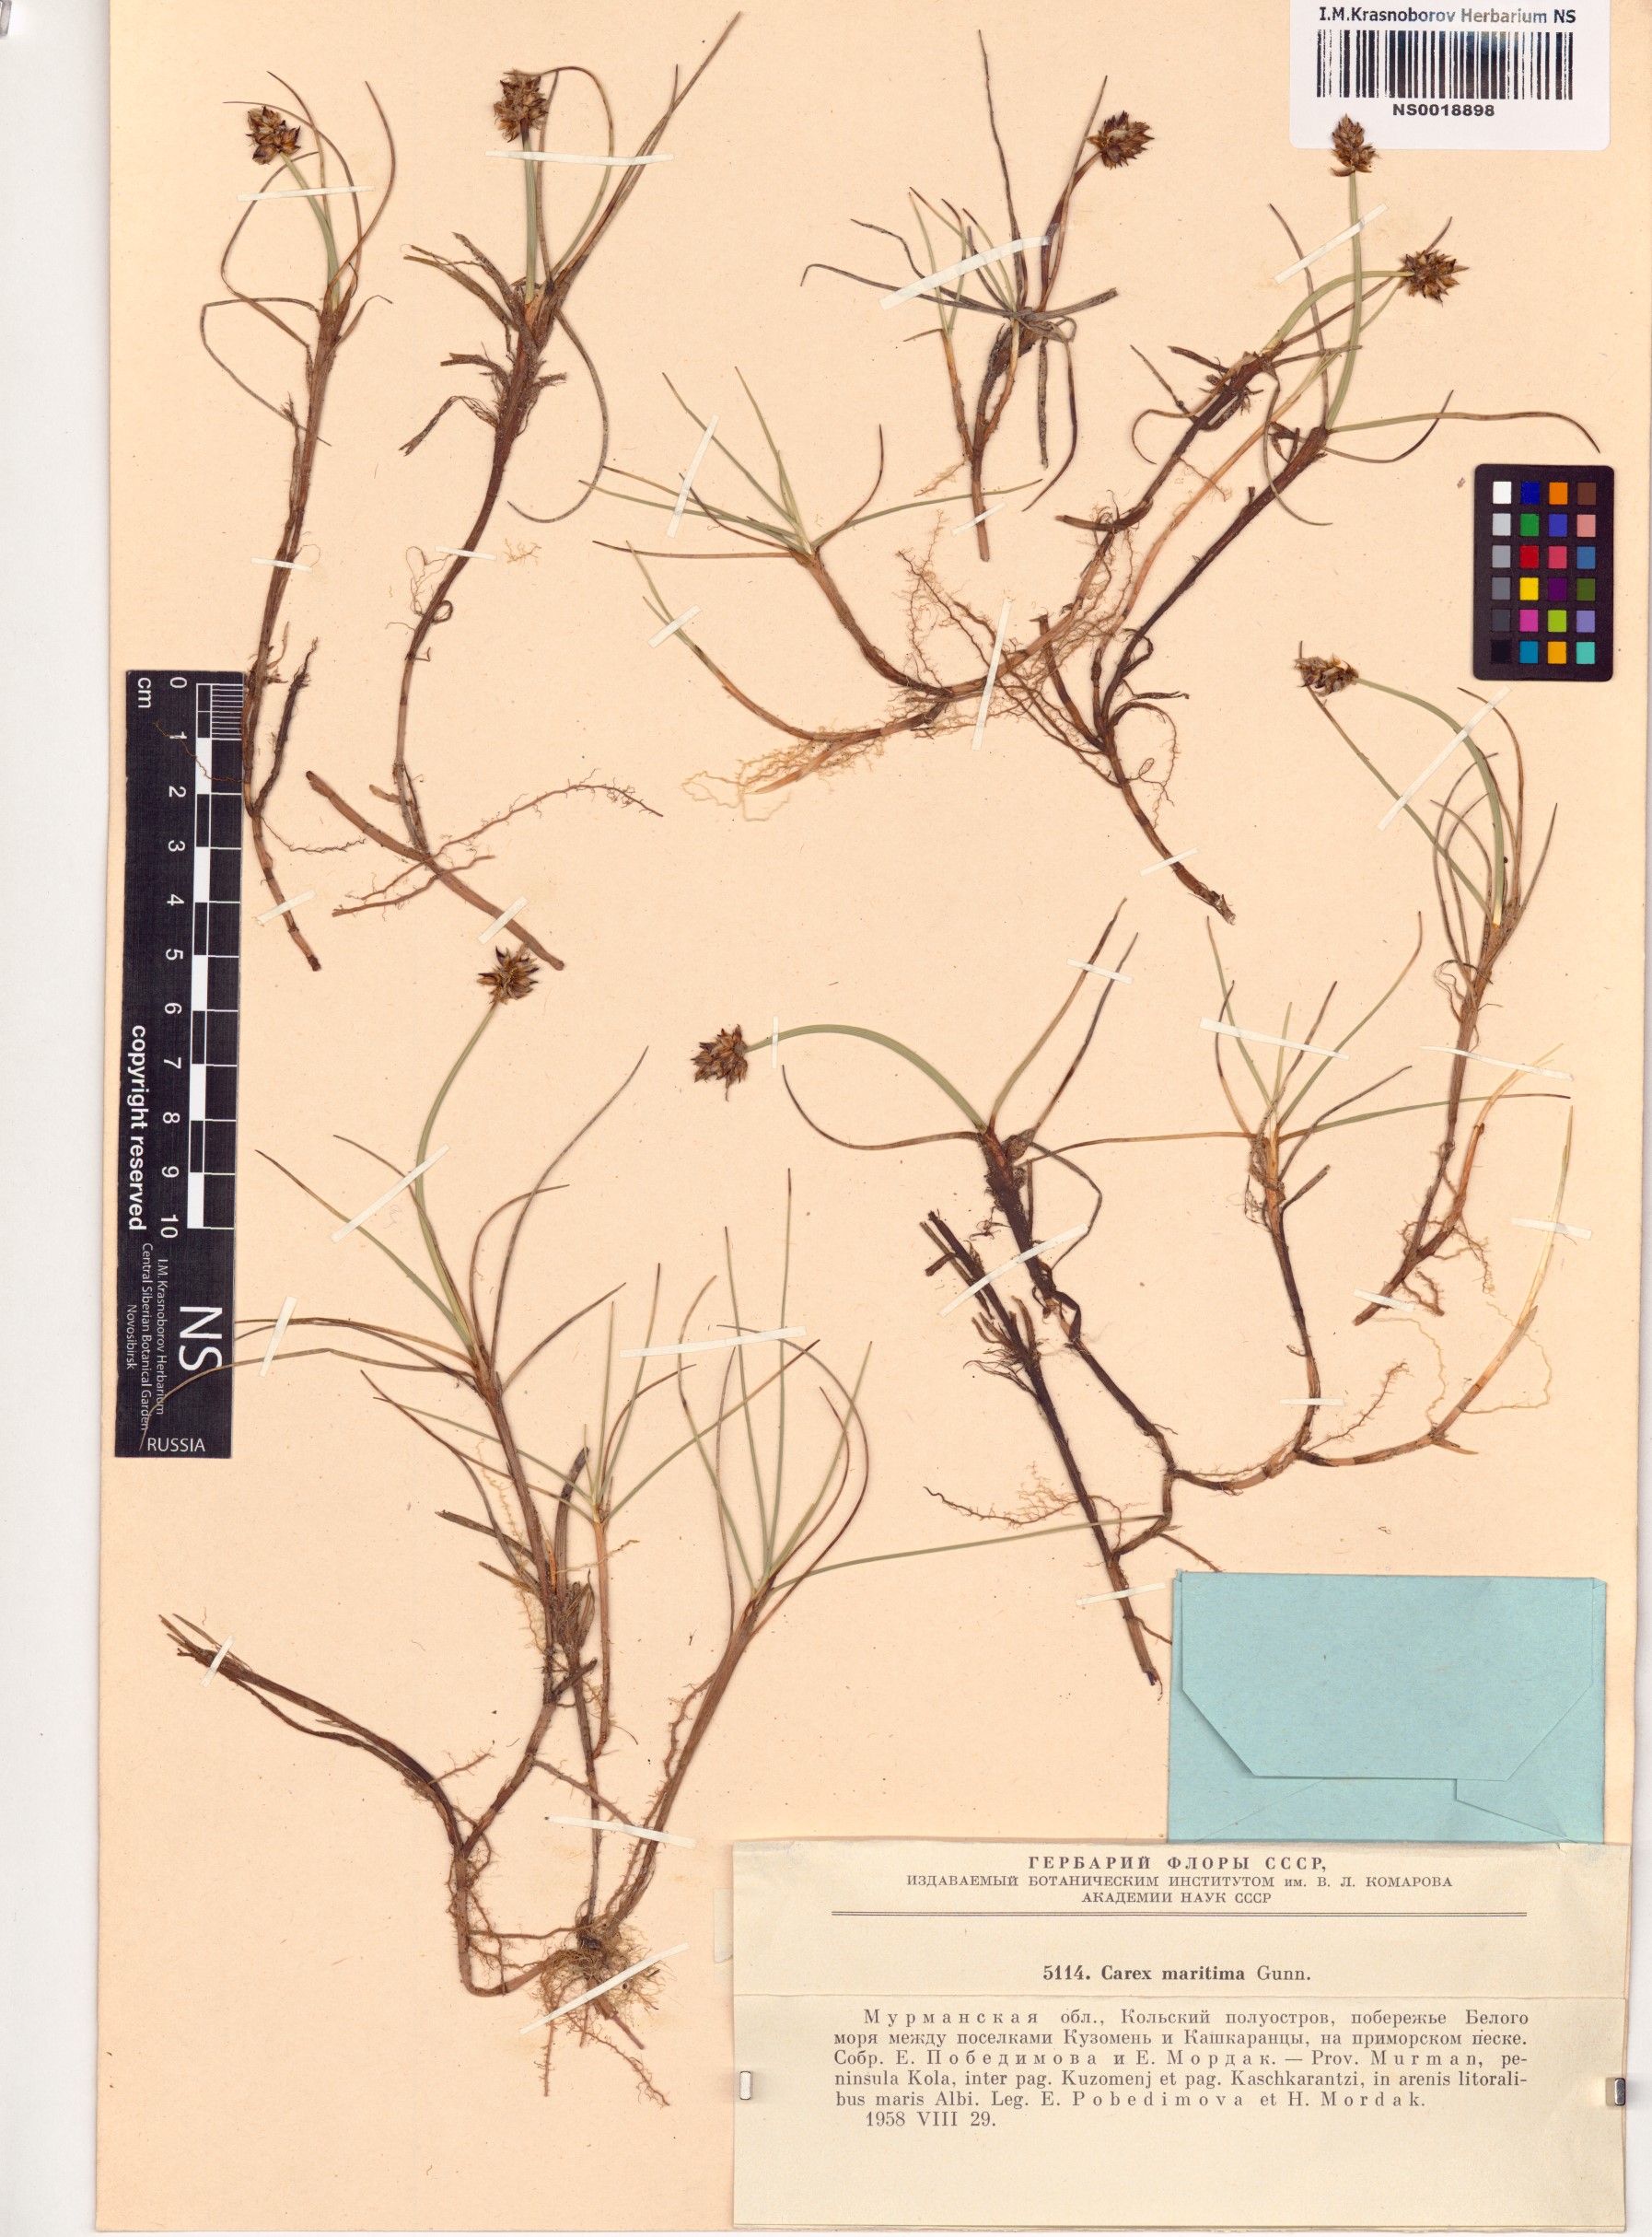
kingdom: Plantae
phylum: Tracheophyta
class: Liliopsida
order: Poales
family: Cyperaceae
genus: Carex
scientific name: Carex maritima
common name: Curved sedge
